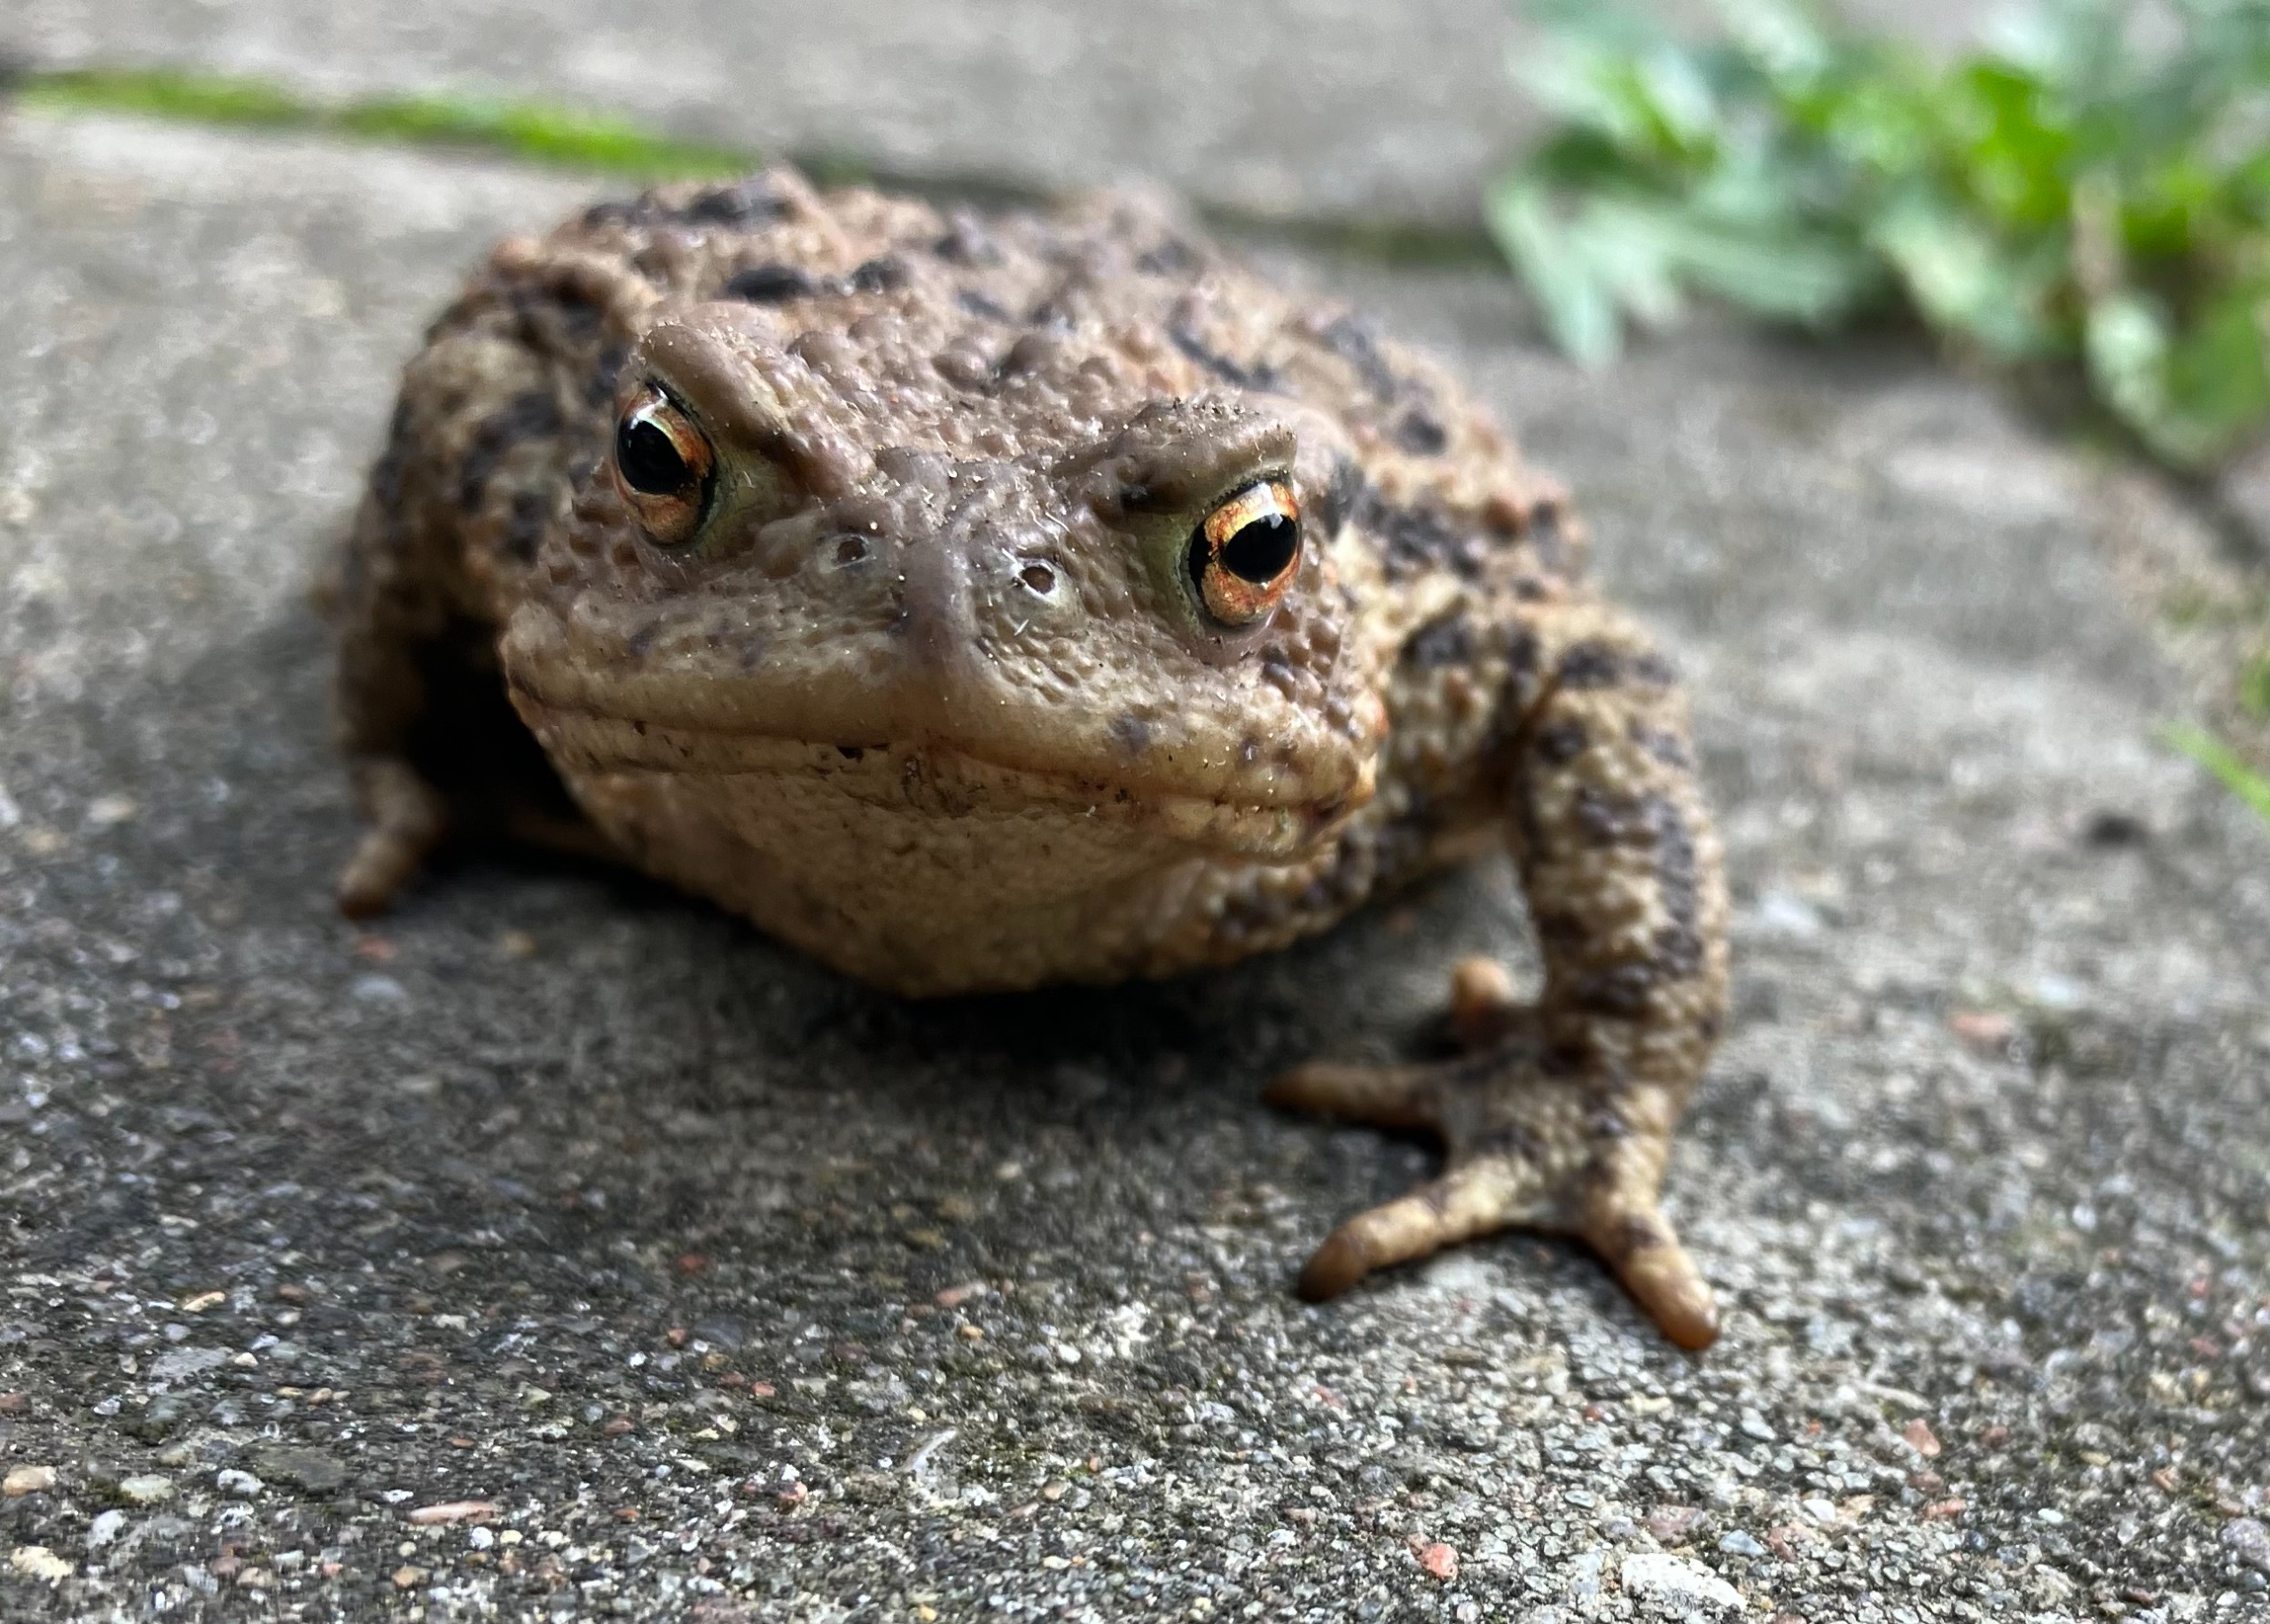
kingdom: Animalia
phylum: Chordata
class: Amphibia
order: Anura
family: Bufonidae
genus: Bufo
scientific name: Bufo bufo
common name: Skrubtudse
